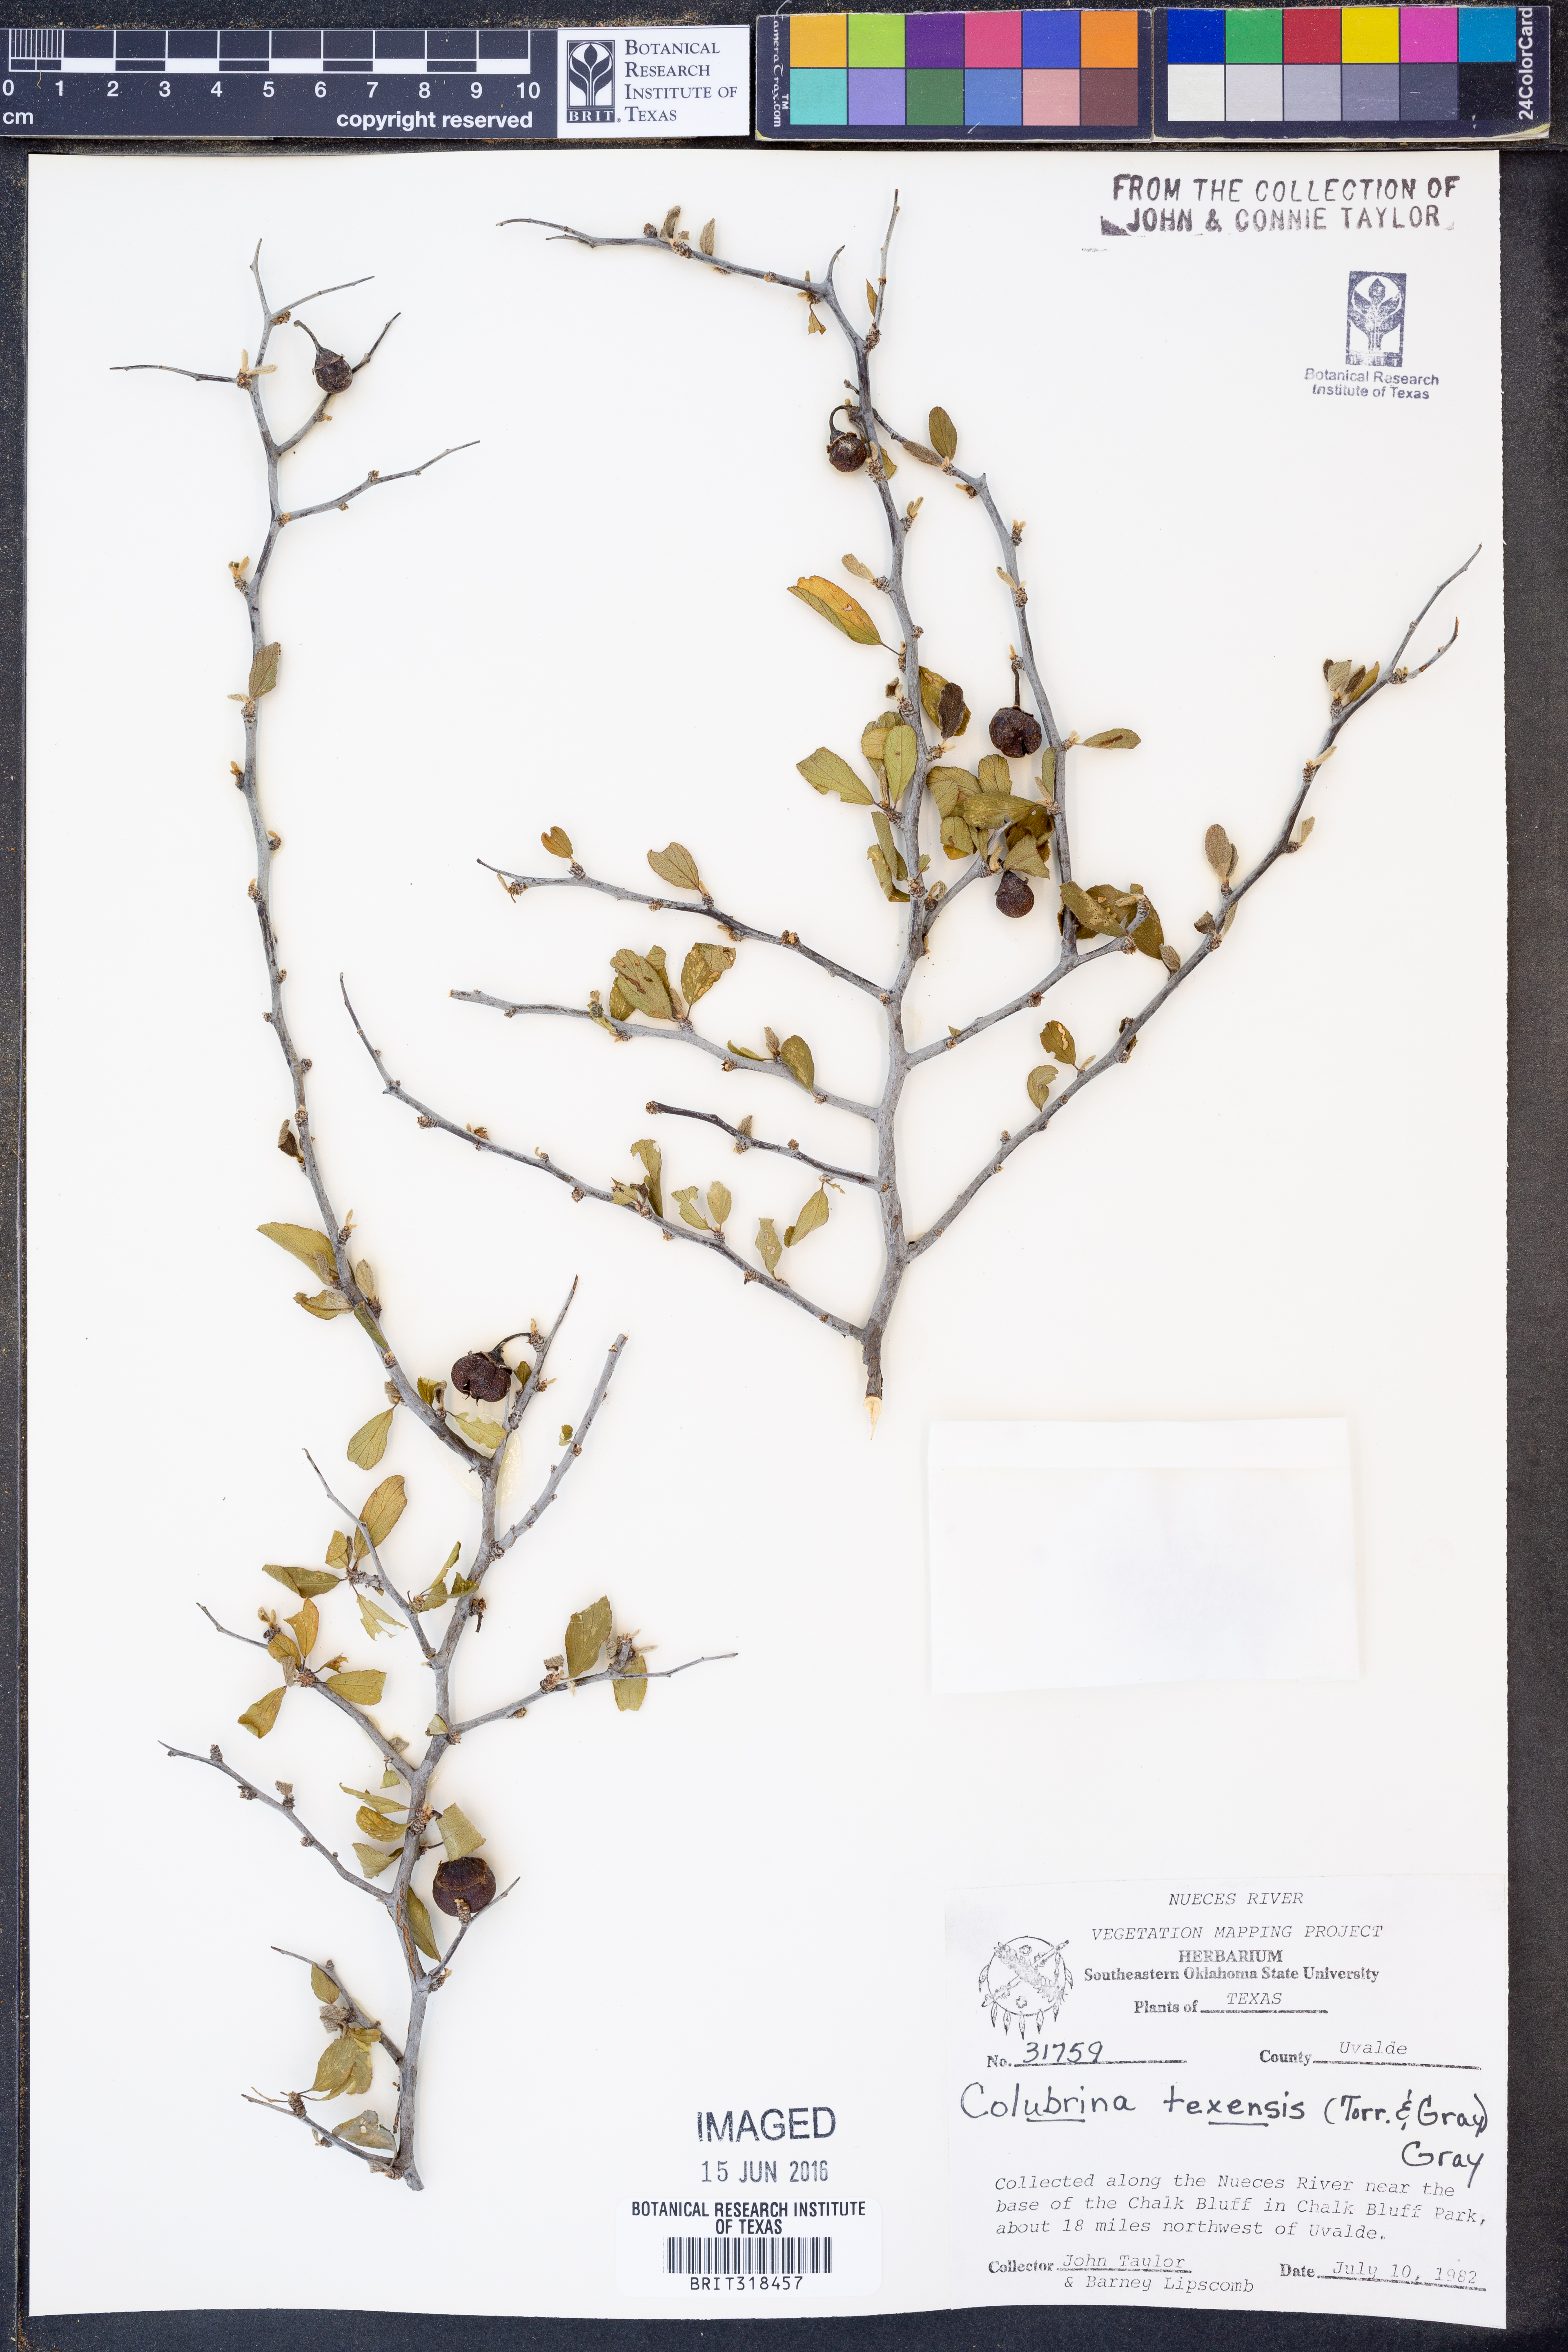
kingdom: Plantae
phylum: Tracheophyta
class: Magnoliopsida
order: Rosales
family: Rhamnaceae
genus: Colubrina
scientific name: Colubrina texensis
